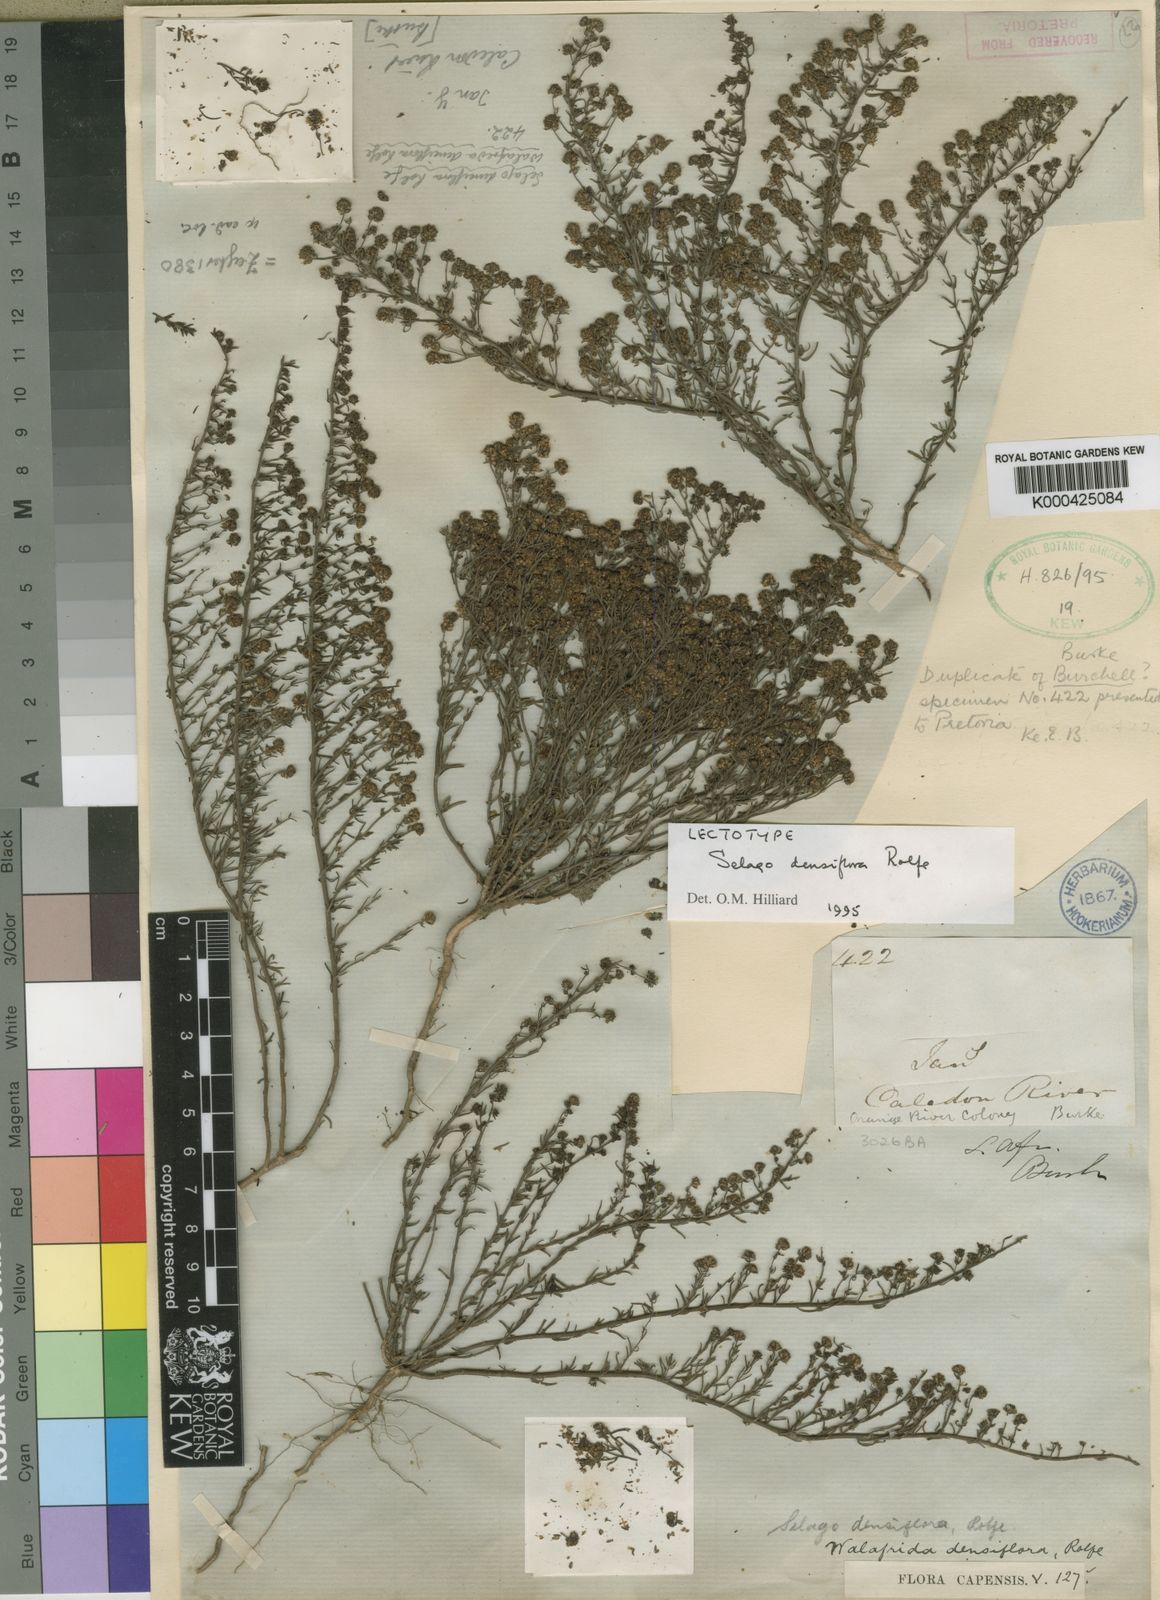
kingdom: Plantae
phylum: Tracheophyta
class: Magnoliopsida
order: Lamiales
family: Scrophulariaceae
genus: Selago
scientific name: Selago
